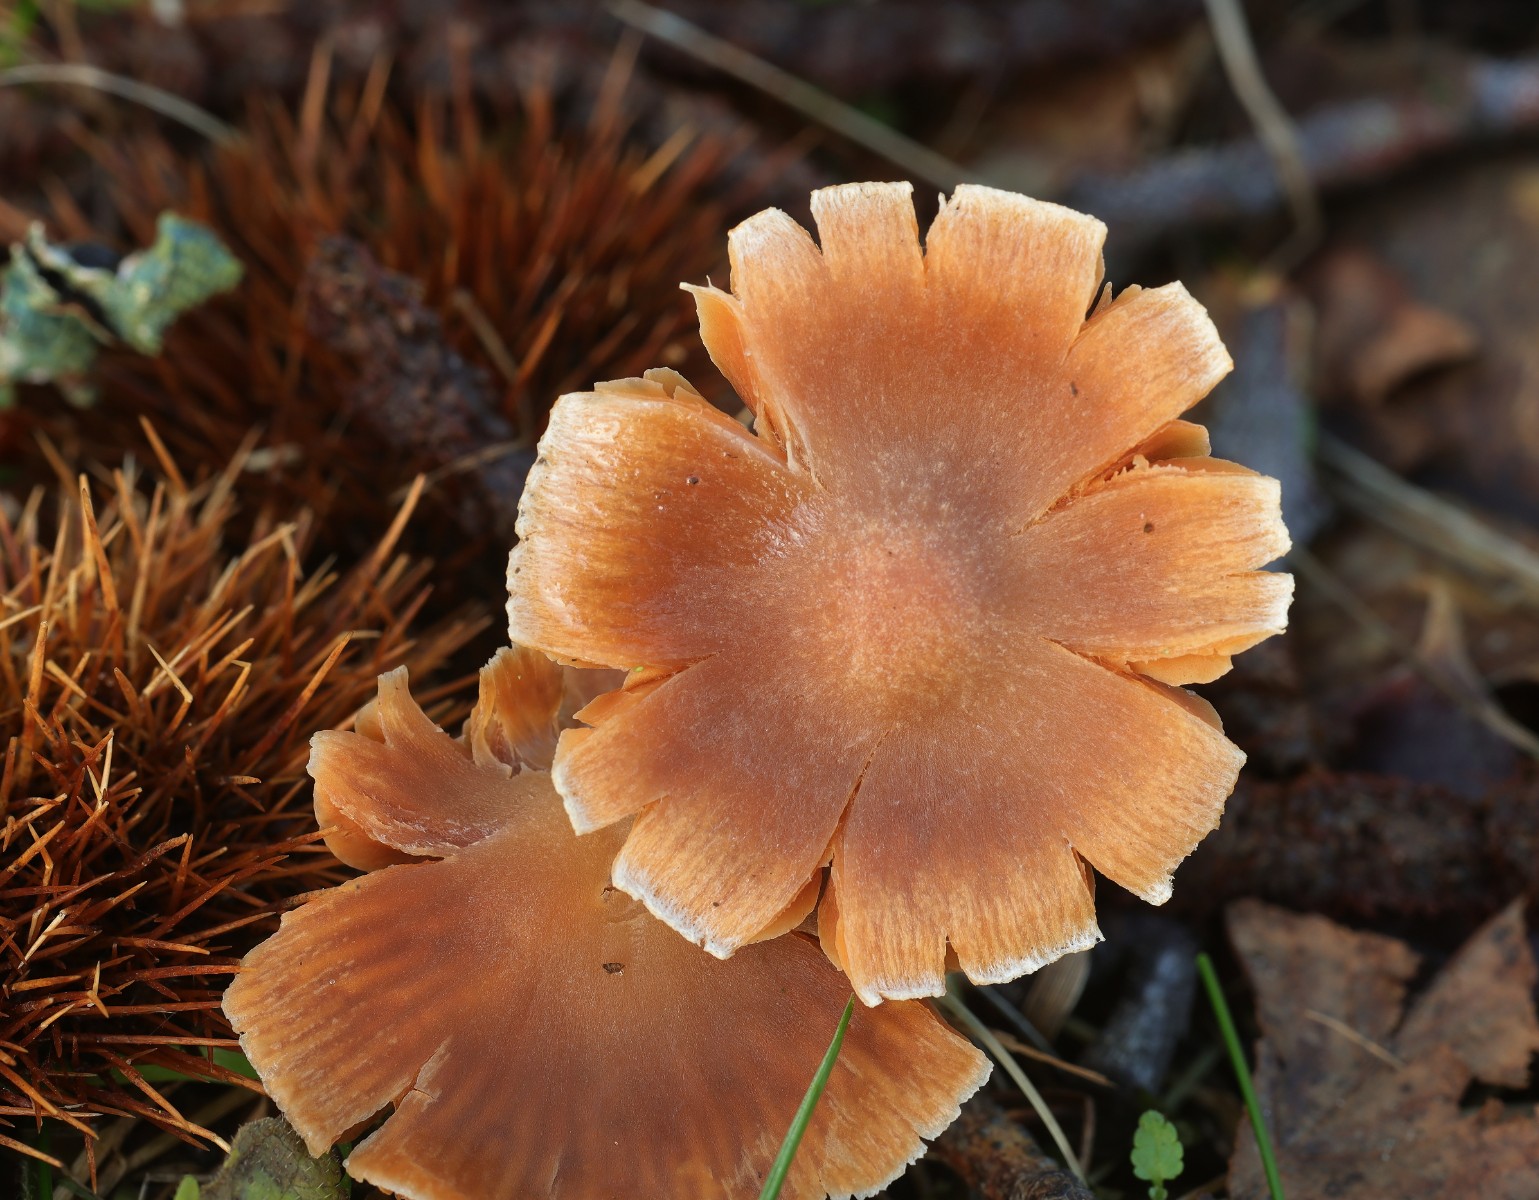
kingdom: Fungi
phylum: Basidiomycota
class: Agaricomycetes
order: Agaricales
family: Cortinariaceae
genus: Cortinarius
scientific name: Cortinarius
